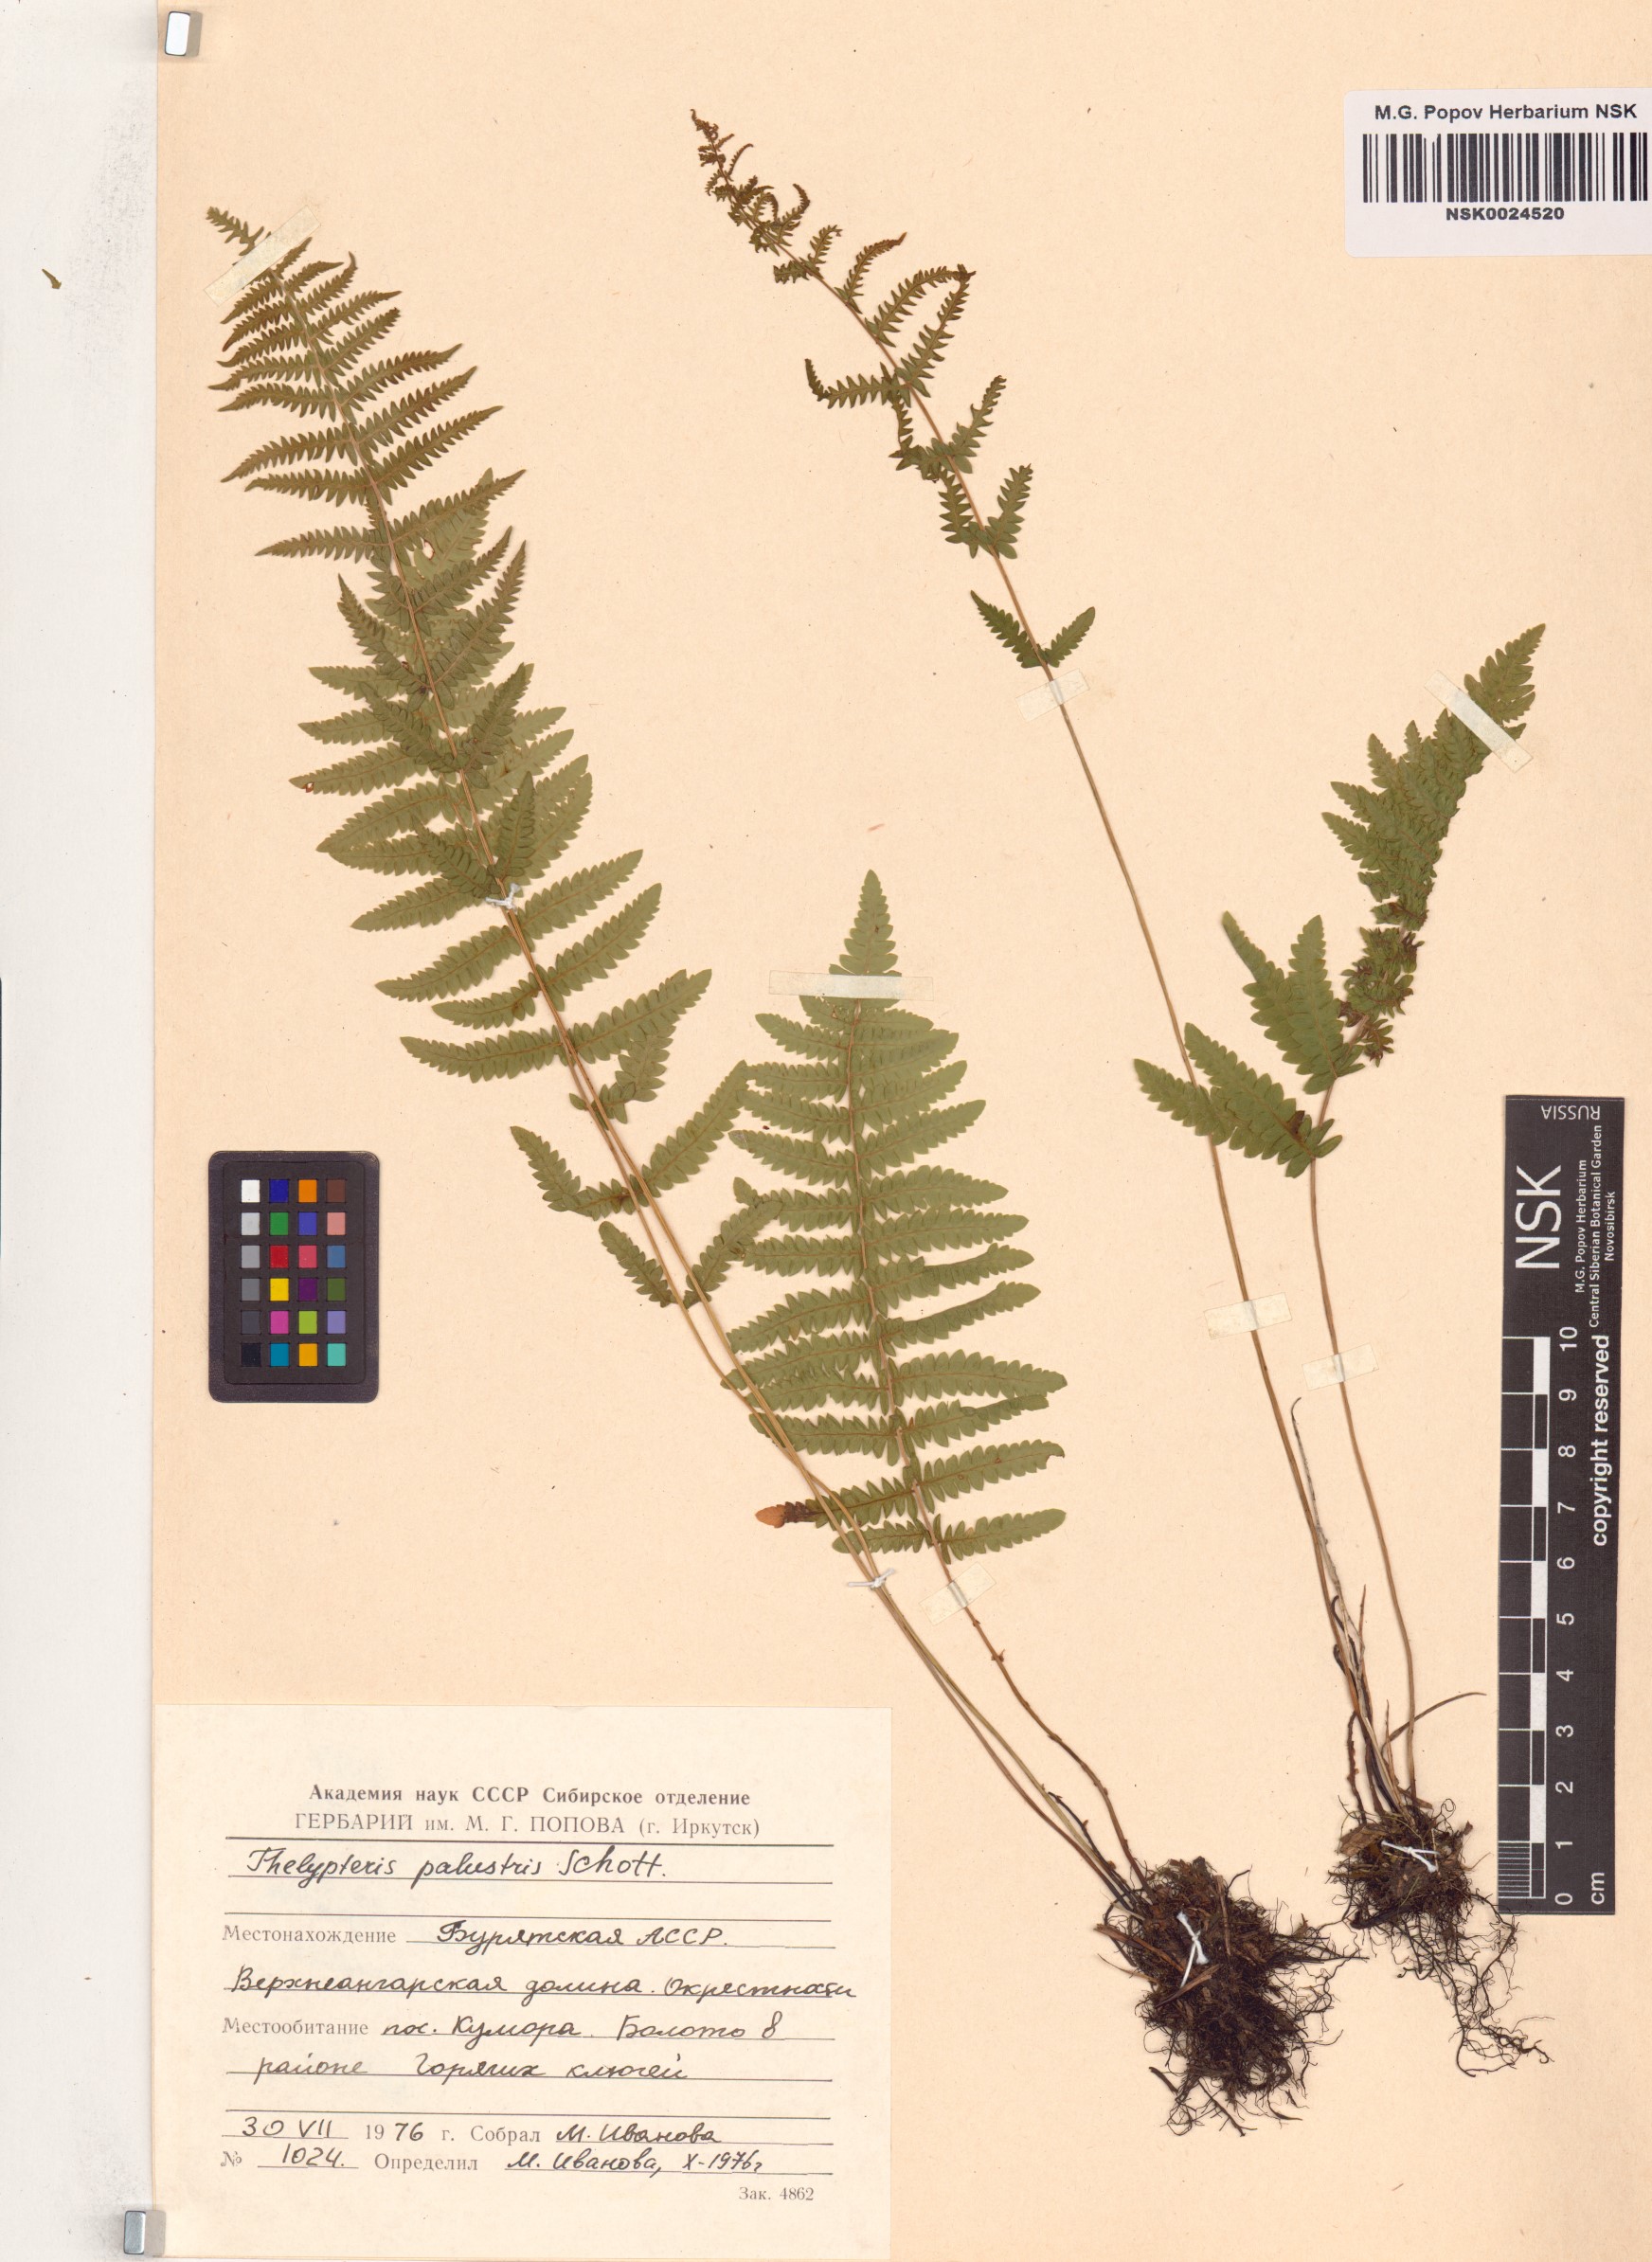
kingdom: Plantae
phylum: Tracheophyta
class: Polypodiopsida
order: Polypodiales
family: Thelypteridaceae
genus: Thelypteris
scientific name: Thelypteris palustris
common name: Marsh fern
